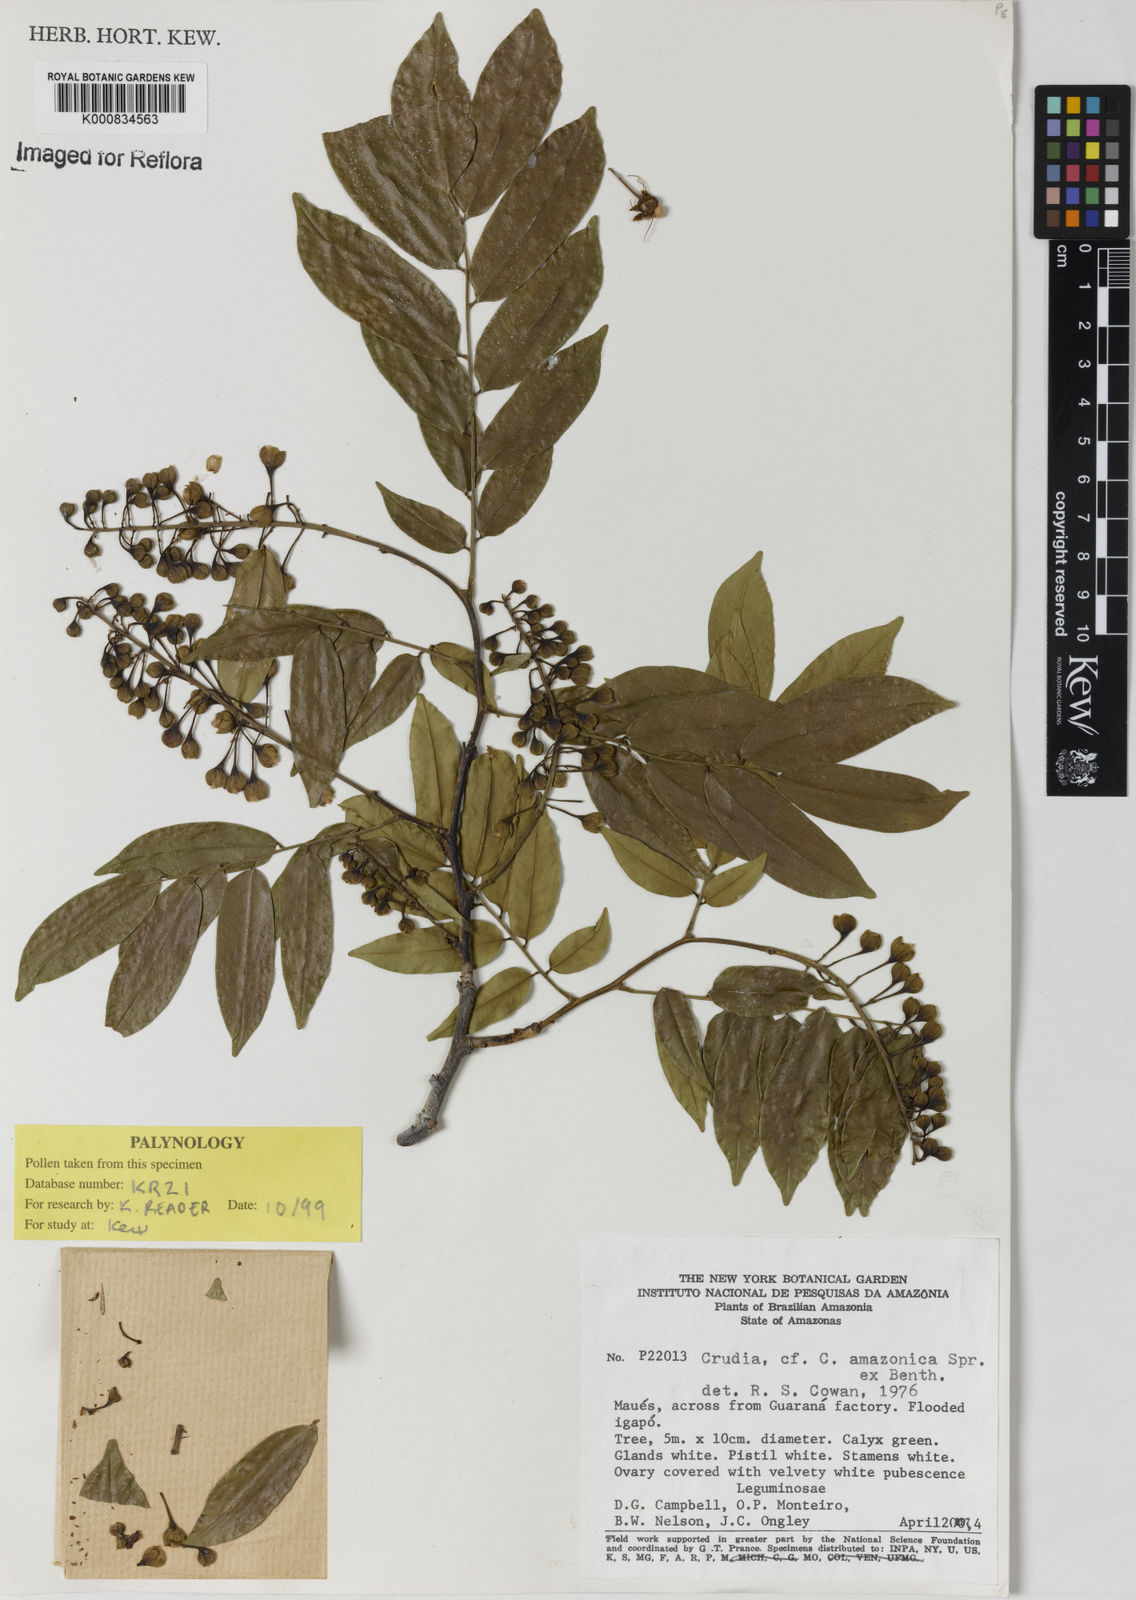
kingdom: Plantae
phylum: Tracheophyta
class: Magnoliopsida
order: Fabales
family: Fabaceae
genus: Crudia
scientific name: Crudia
